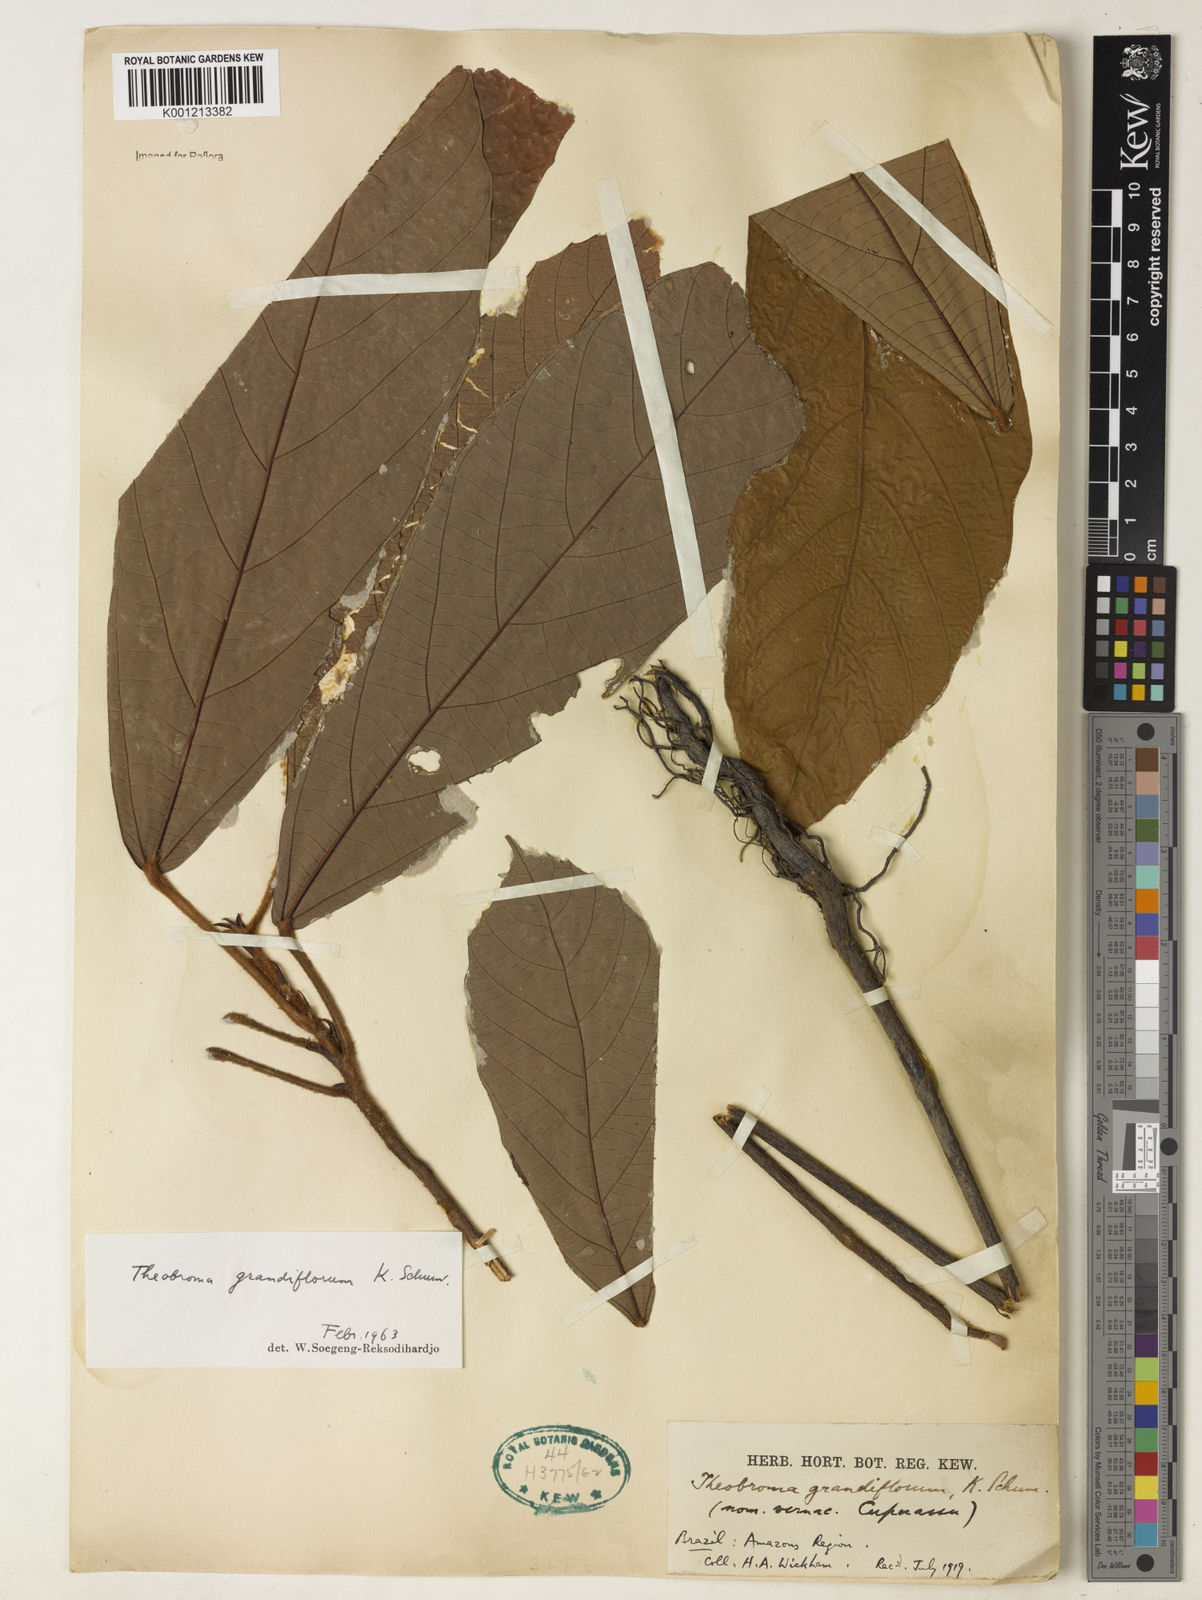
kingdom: Plantae
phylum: Tracheophyta
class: Magnoliopsida
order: Malvales
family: Malvaceae
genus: Theobroma
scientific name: Theobroma grandiflorum
